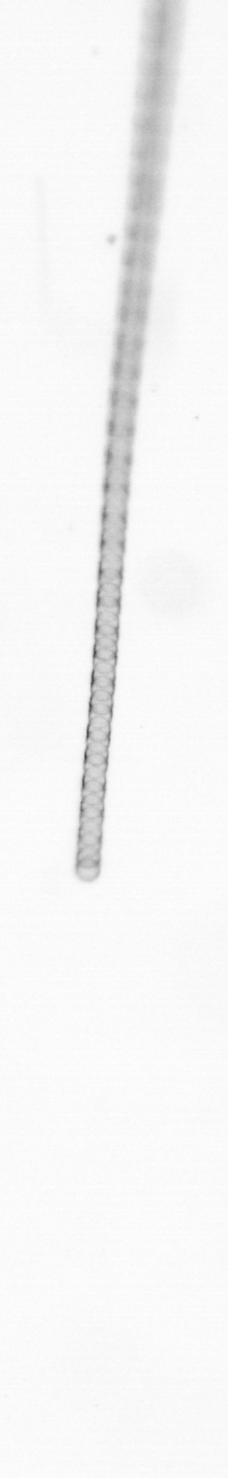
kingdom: Chromista
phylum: Ochrophyta
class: Bacillariophyceae
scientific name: Bacillariophyceae
